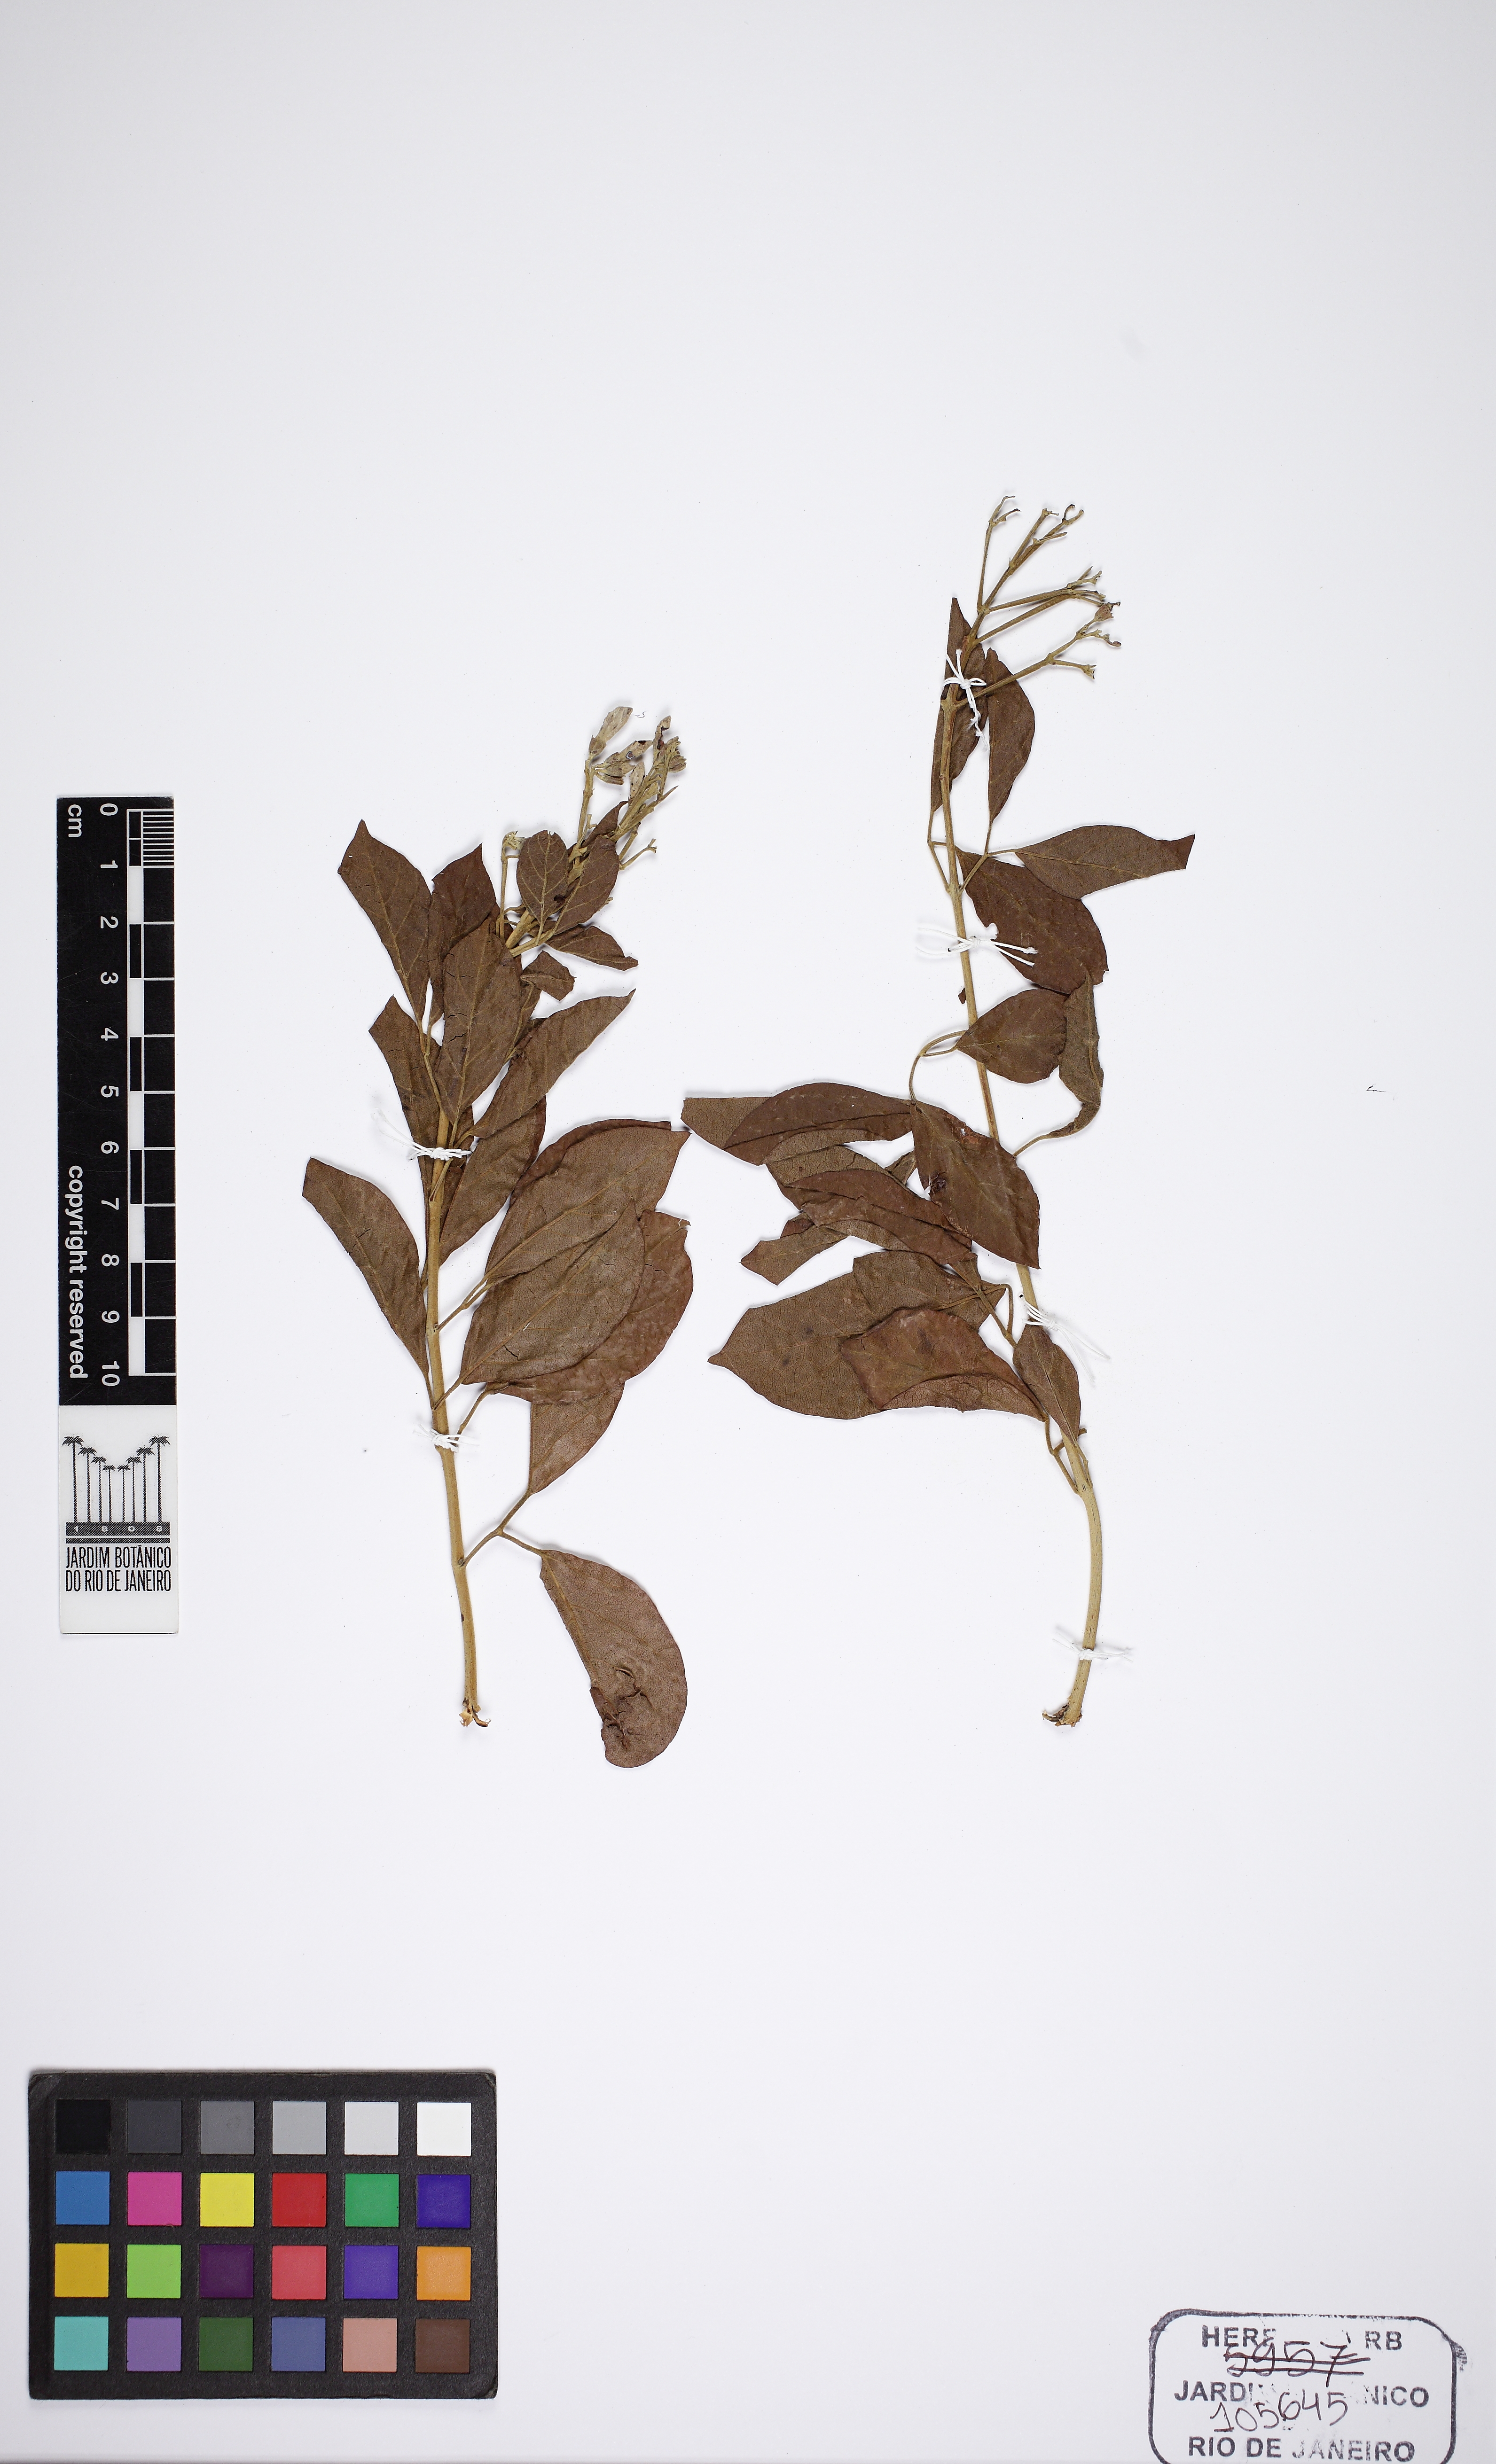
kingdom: Plantae
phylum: Tracheophyta
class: Magnoliopsida
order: Lamiales
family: Bignoniaceae
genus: Cuspidaria
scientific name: Cuspidaria floribunda
